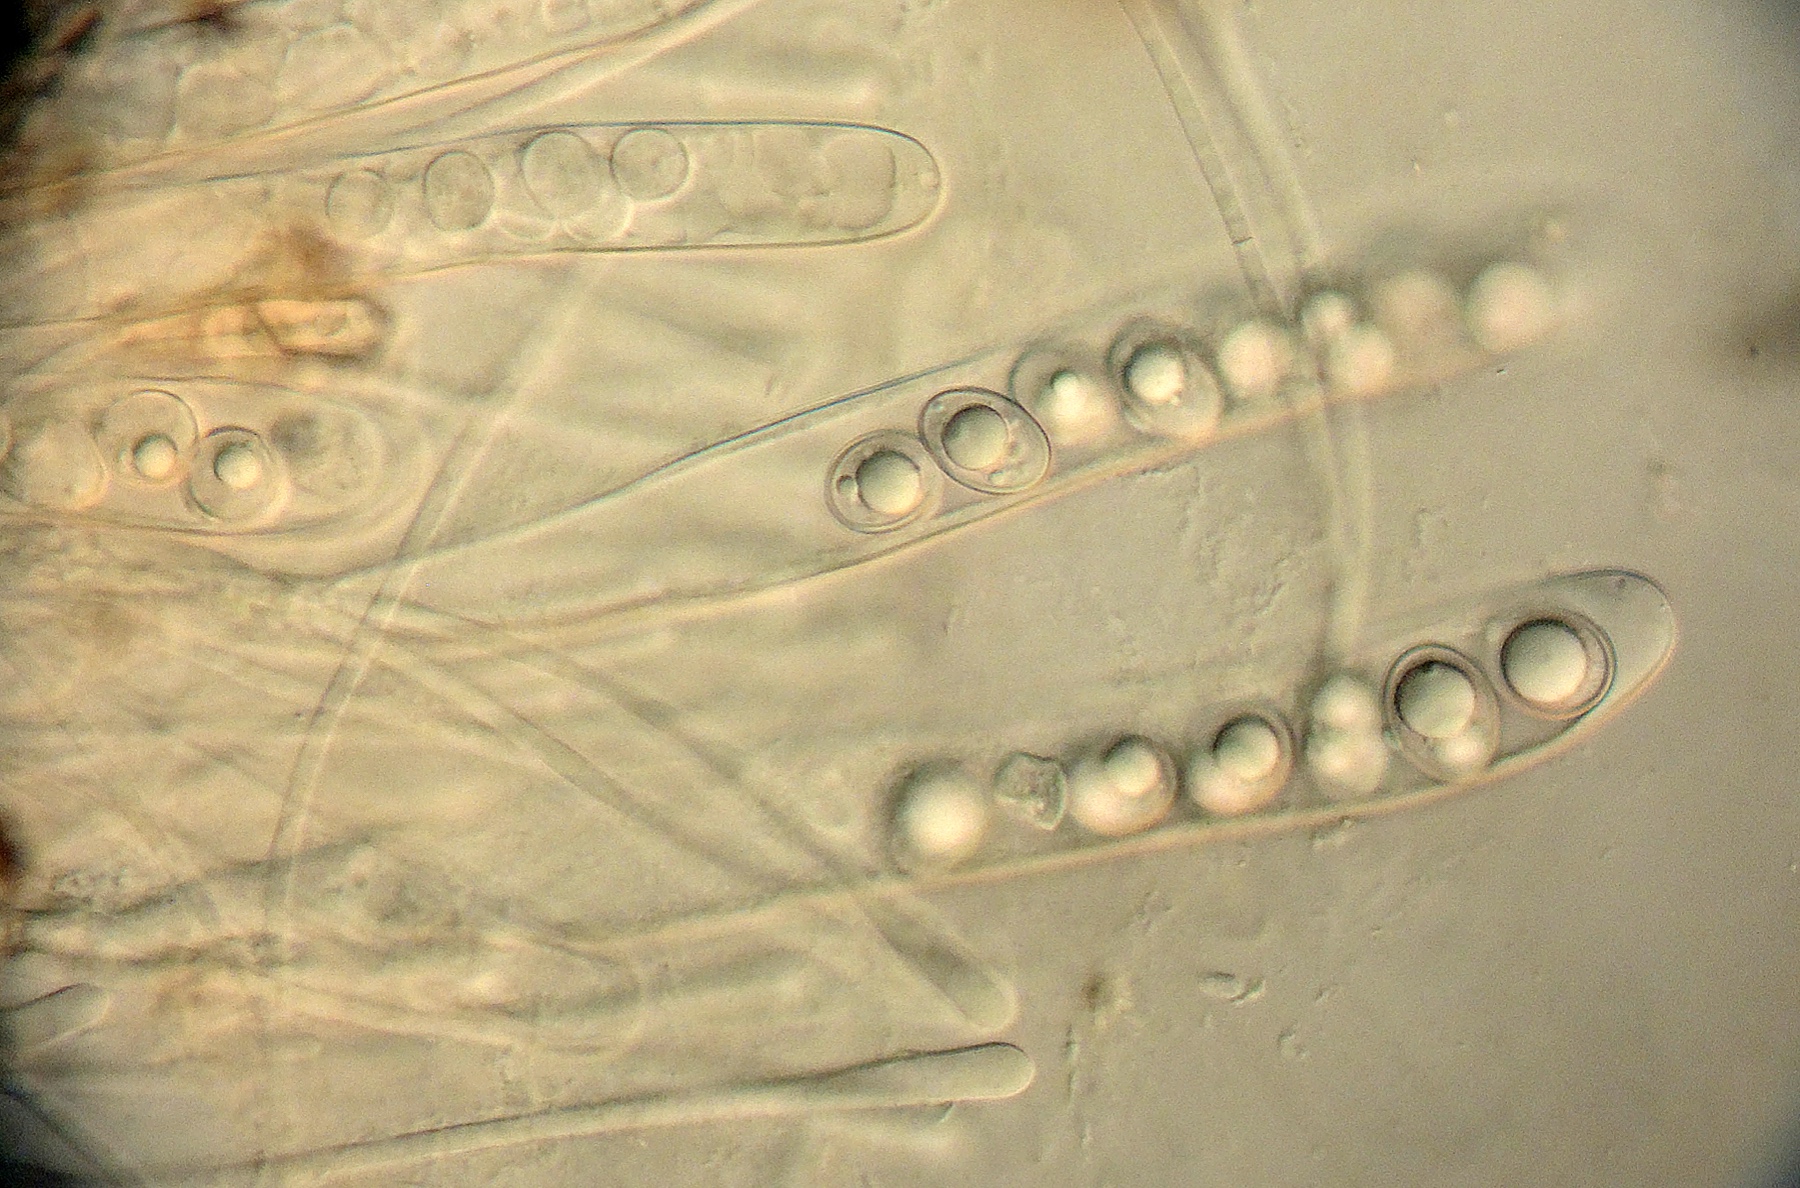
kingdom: Fungi
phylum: Ascomycota
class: Pezizomycetes
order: Pezizales
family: Pyronemataceae
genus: Trichophaea
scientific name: Trichophaea woolhopeia
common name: bredsporet børstebæger
